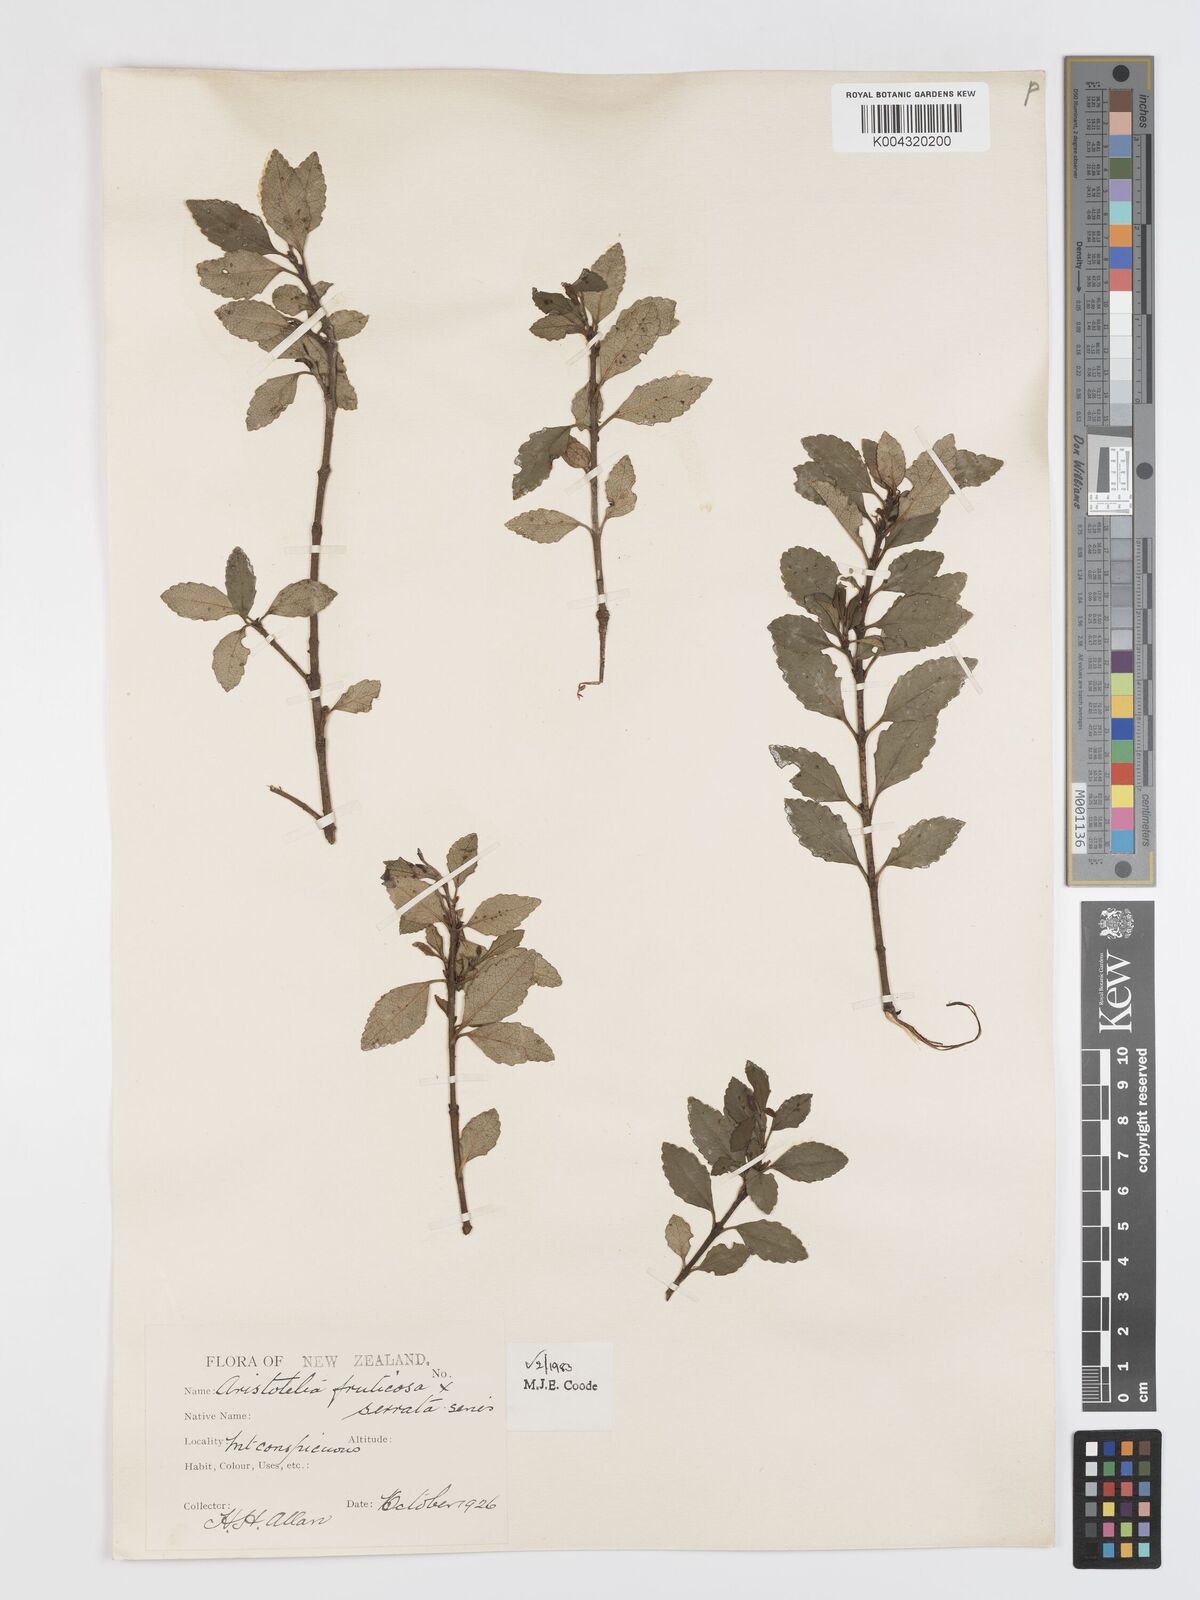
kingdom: Plantae
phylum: Tracheophyta
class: Magnoliopsida
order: Oxalidales
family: Elaeocarpaceae
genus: Aristotelia
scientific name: Aristotelia fruticosa
